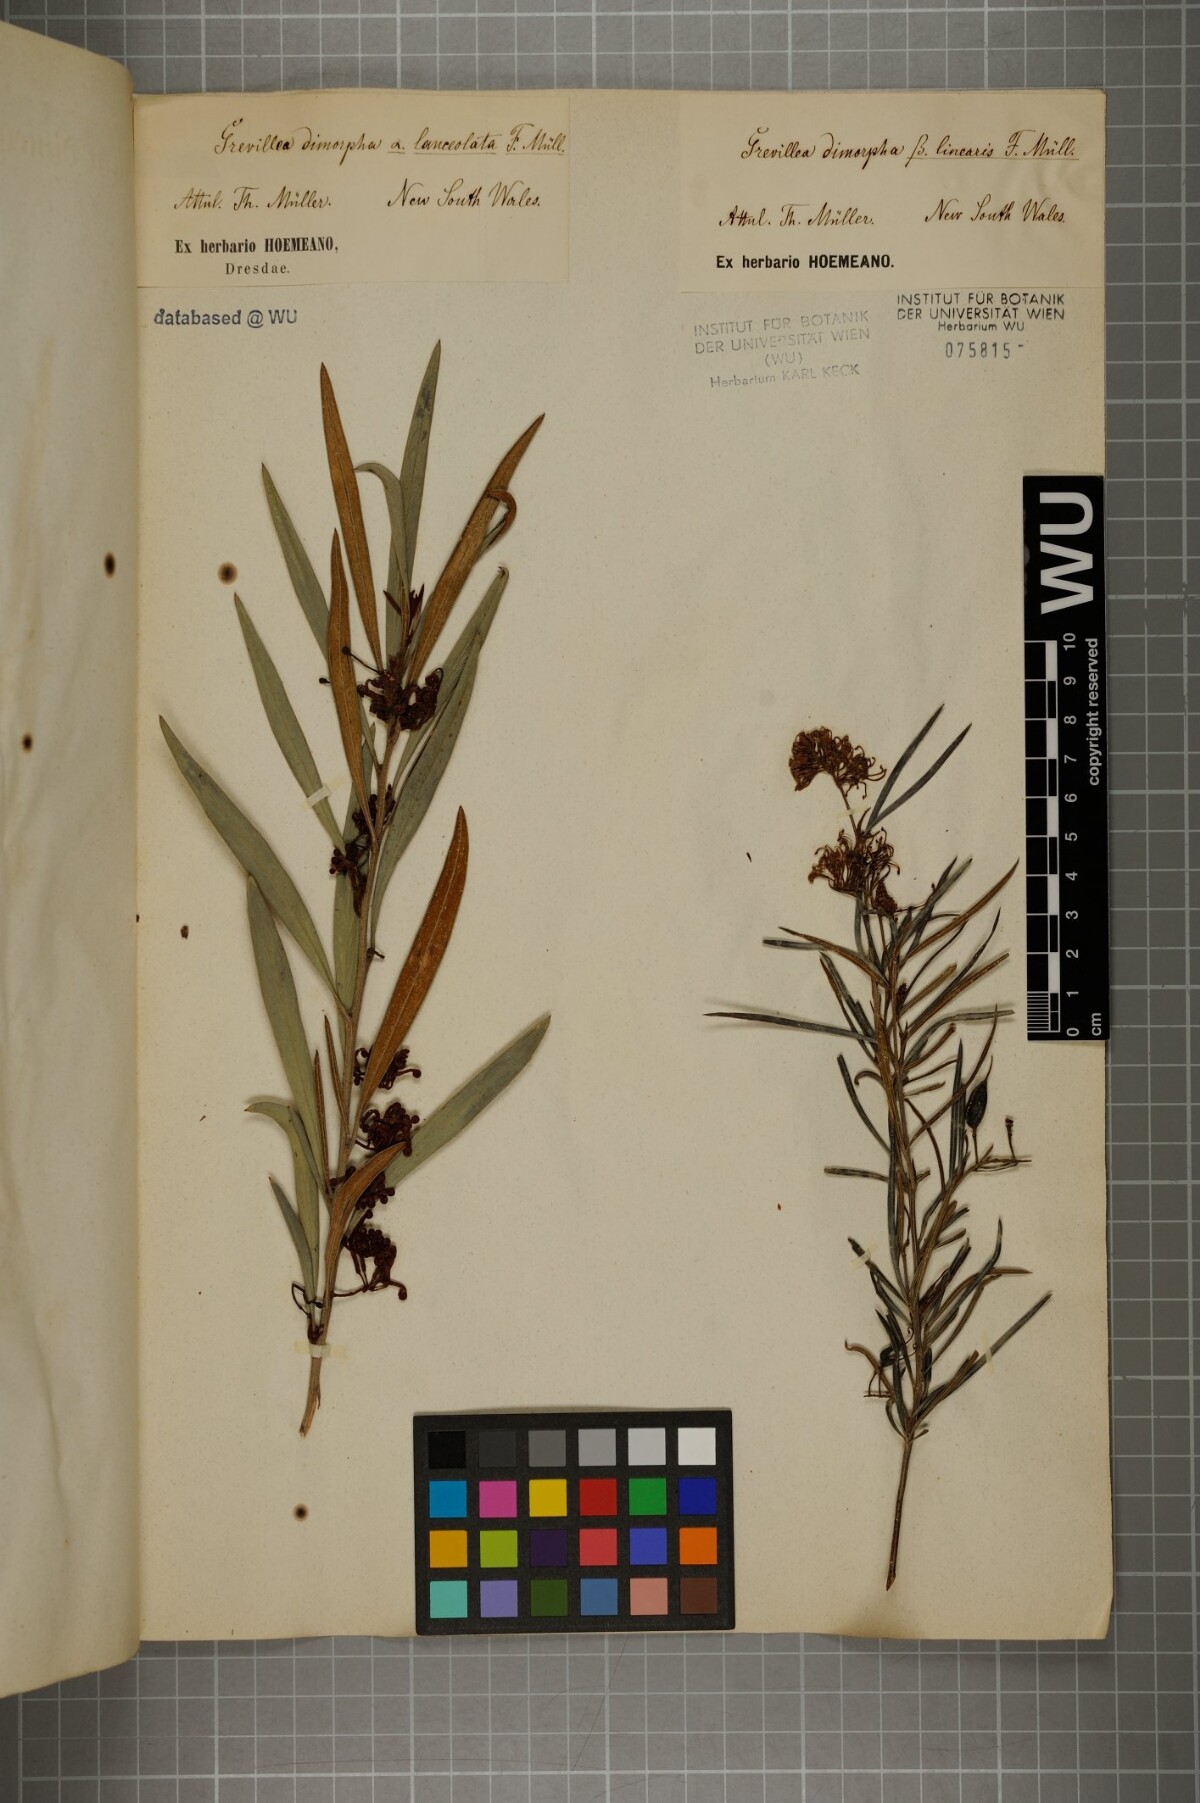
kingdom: Plantae
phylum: Tracheophyta
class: Magnoliopsida
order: Proteales
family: Proteaceae
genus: Grevillea
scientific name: Grevillea dimorpha
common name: Flame grevillea
